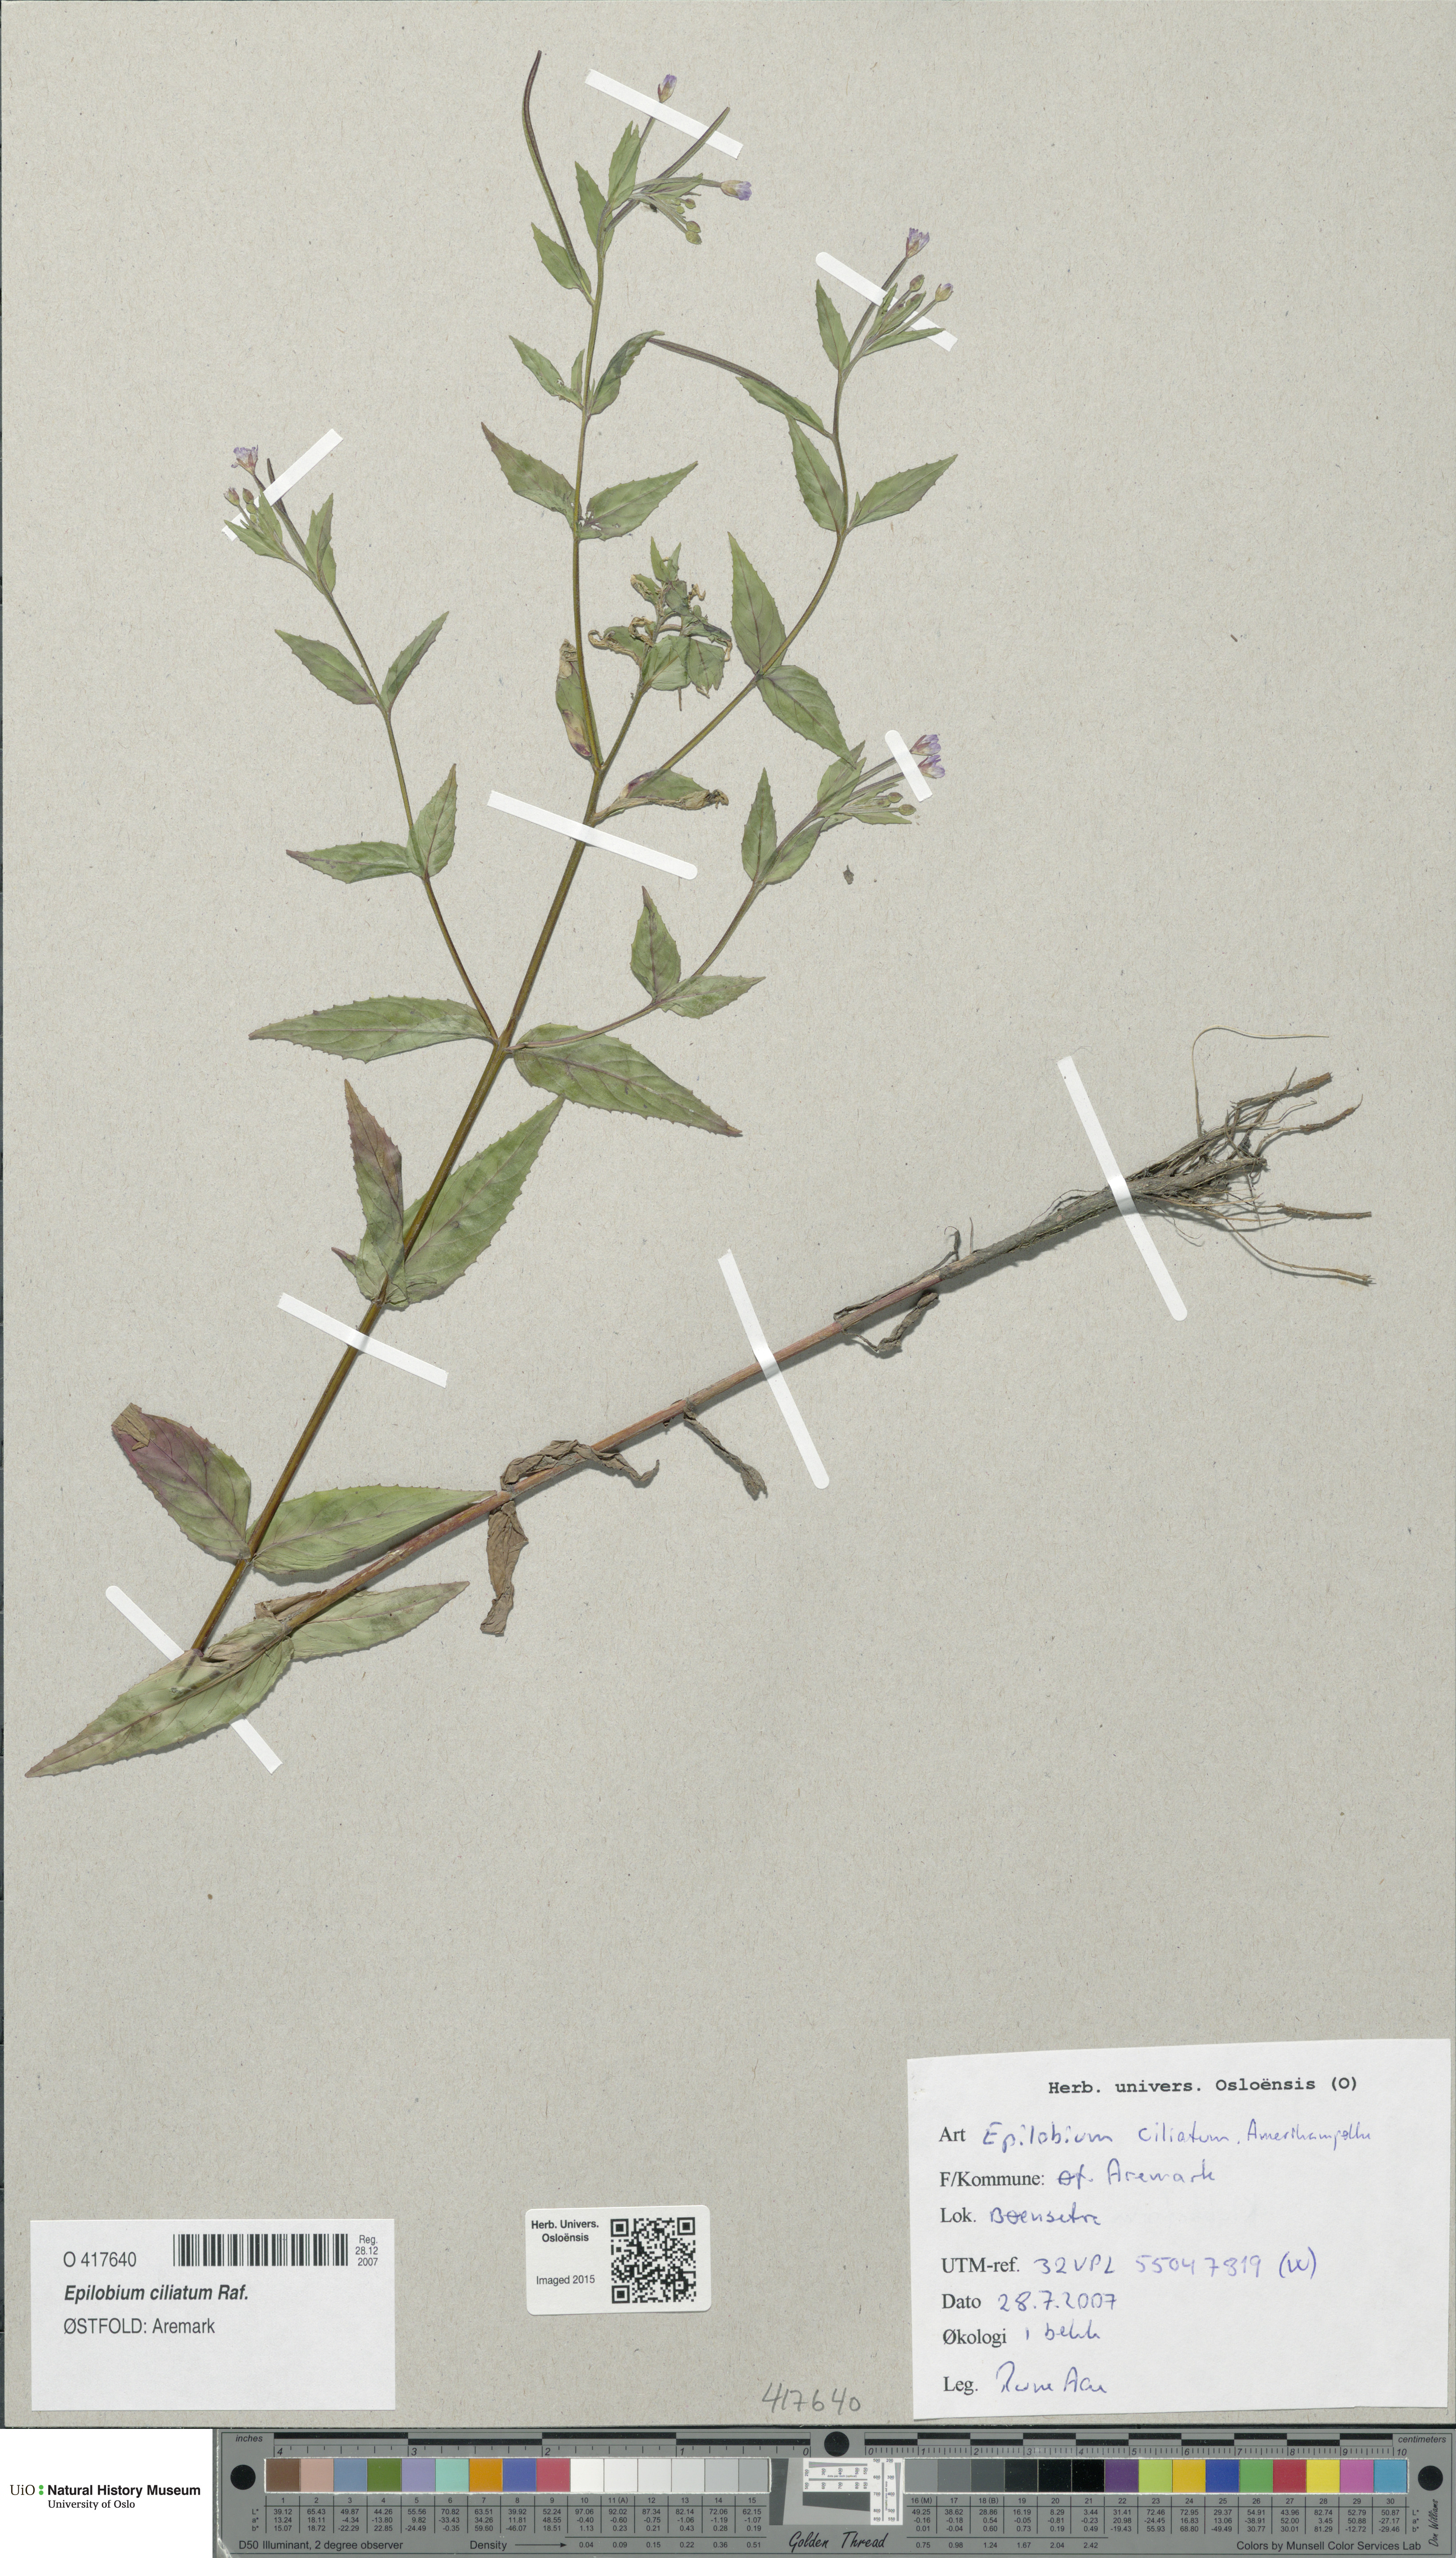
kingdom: Plantae
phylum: Tracheophyta
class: Magnoliopsida
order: Myrtales
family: Onagraceae
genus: Epilobium
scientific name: Epilobium ciliatum
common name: American willowherb
